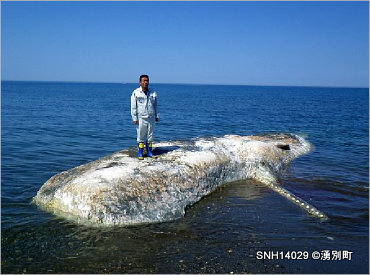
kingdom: Animalia
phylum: Chordata
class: Mammalia
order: Cetacea
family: Physeteridae
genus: Physeter
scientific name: Physeter macrocephalus
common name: Sperm whale
